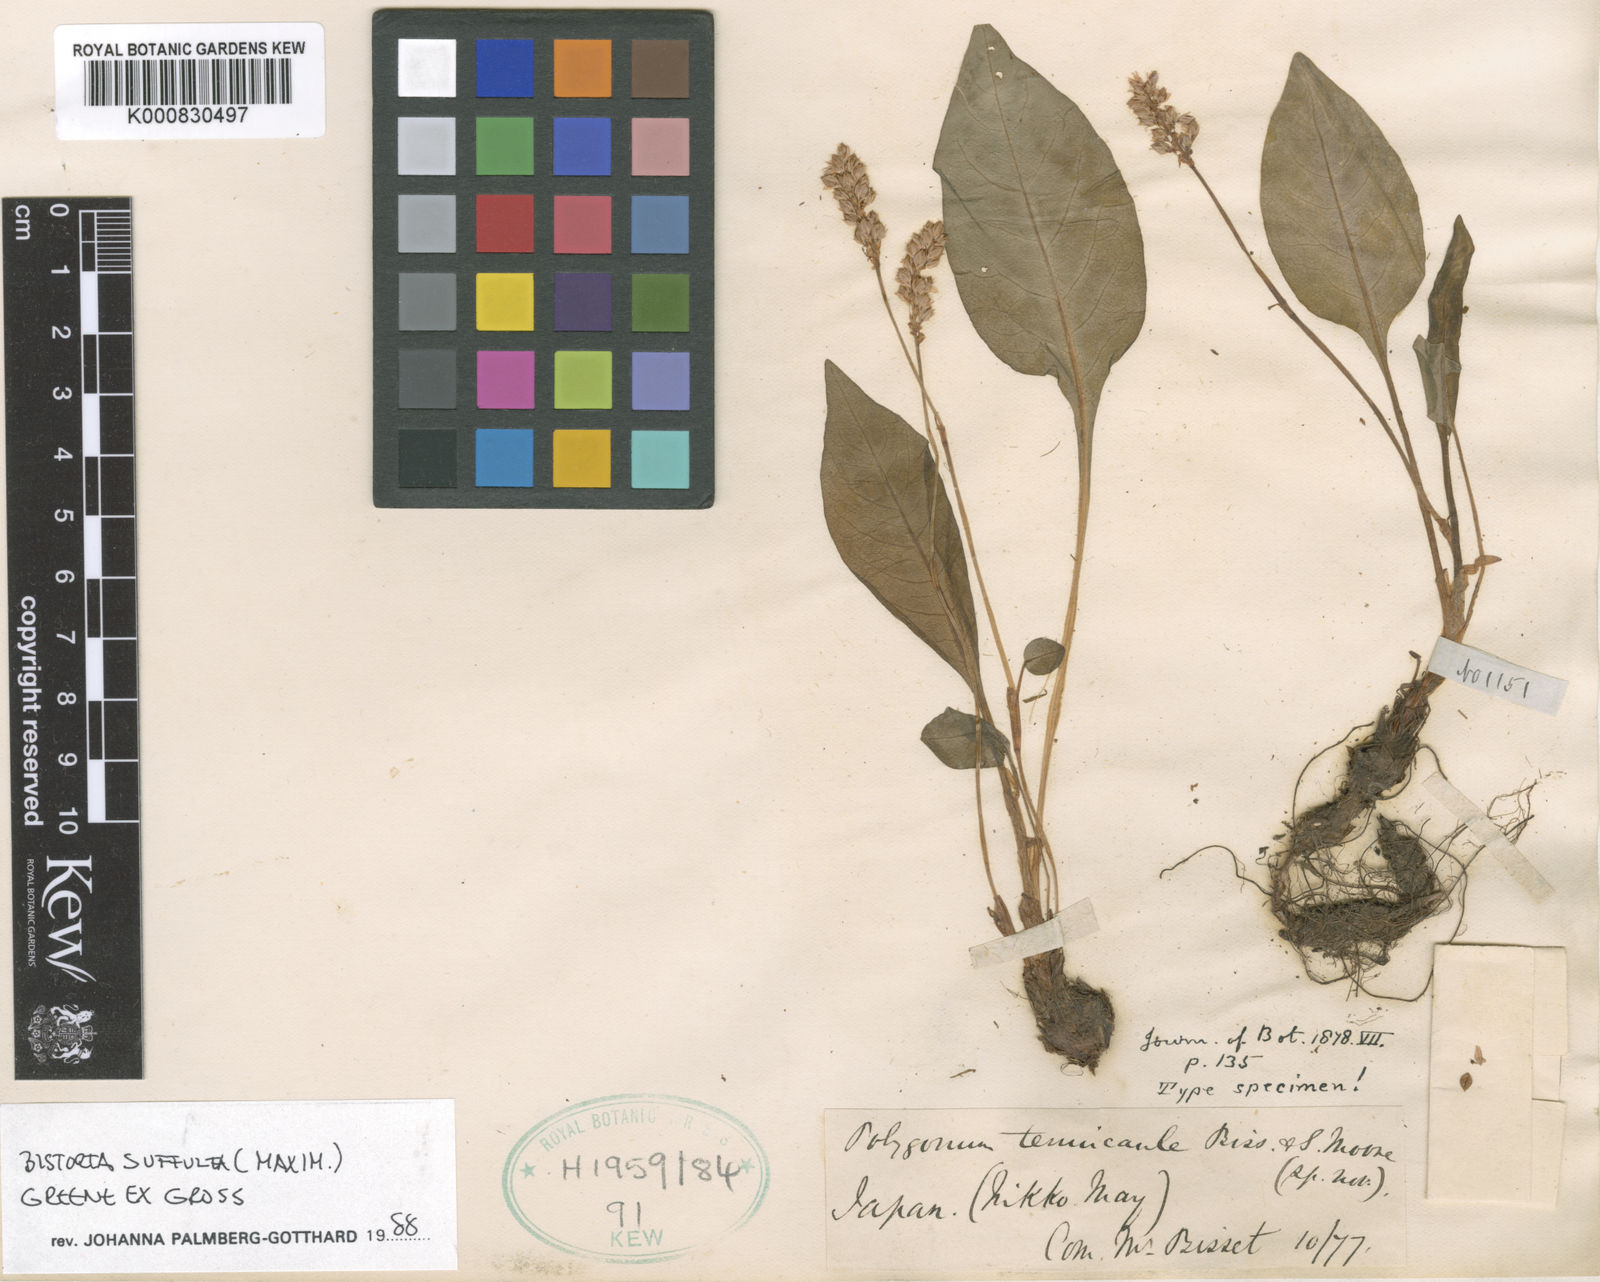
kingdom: Plantae
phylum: Tracheophyta
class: Magnoliopsida
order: Caryophyllales
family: Polygonaceae
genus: Bistorta
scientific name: Bistorta tenuicaulis
